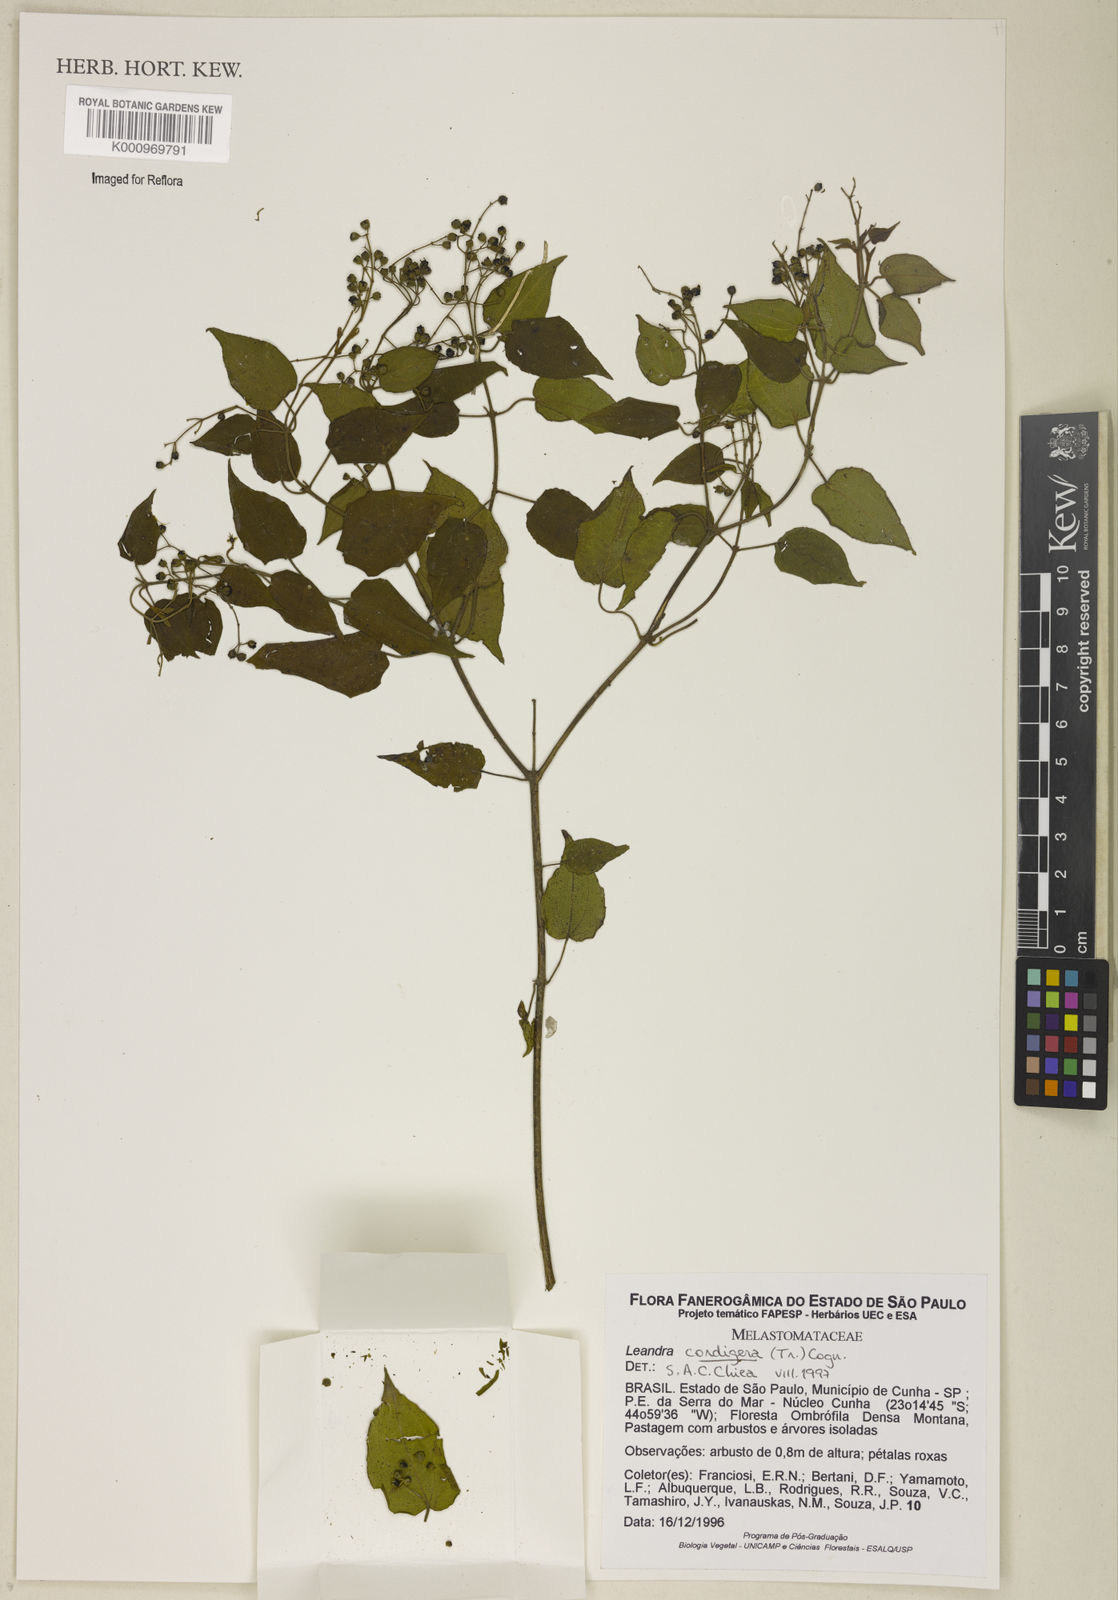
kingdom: Plantae
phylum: Tracheophyta
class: Magnoliopsida
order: Myrtales
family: Melastomataceae
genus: Miconia
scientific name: Miconia cordigera
